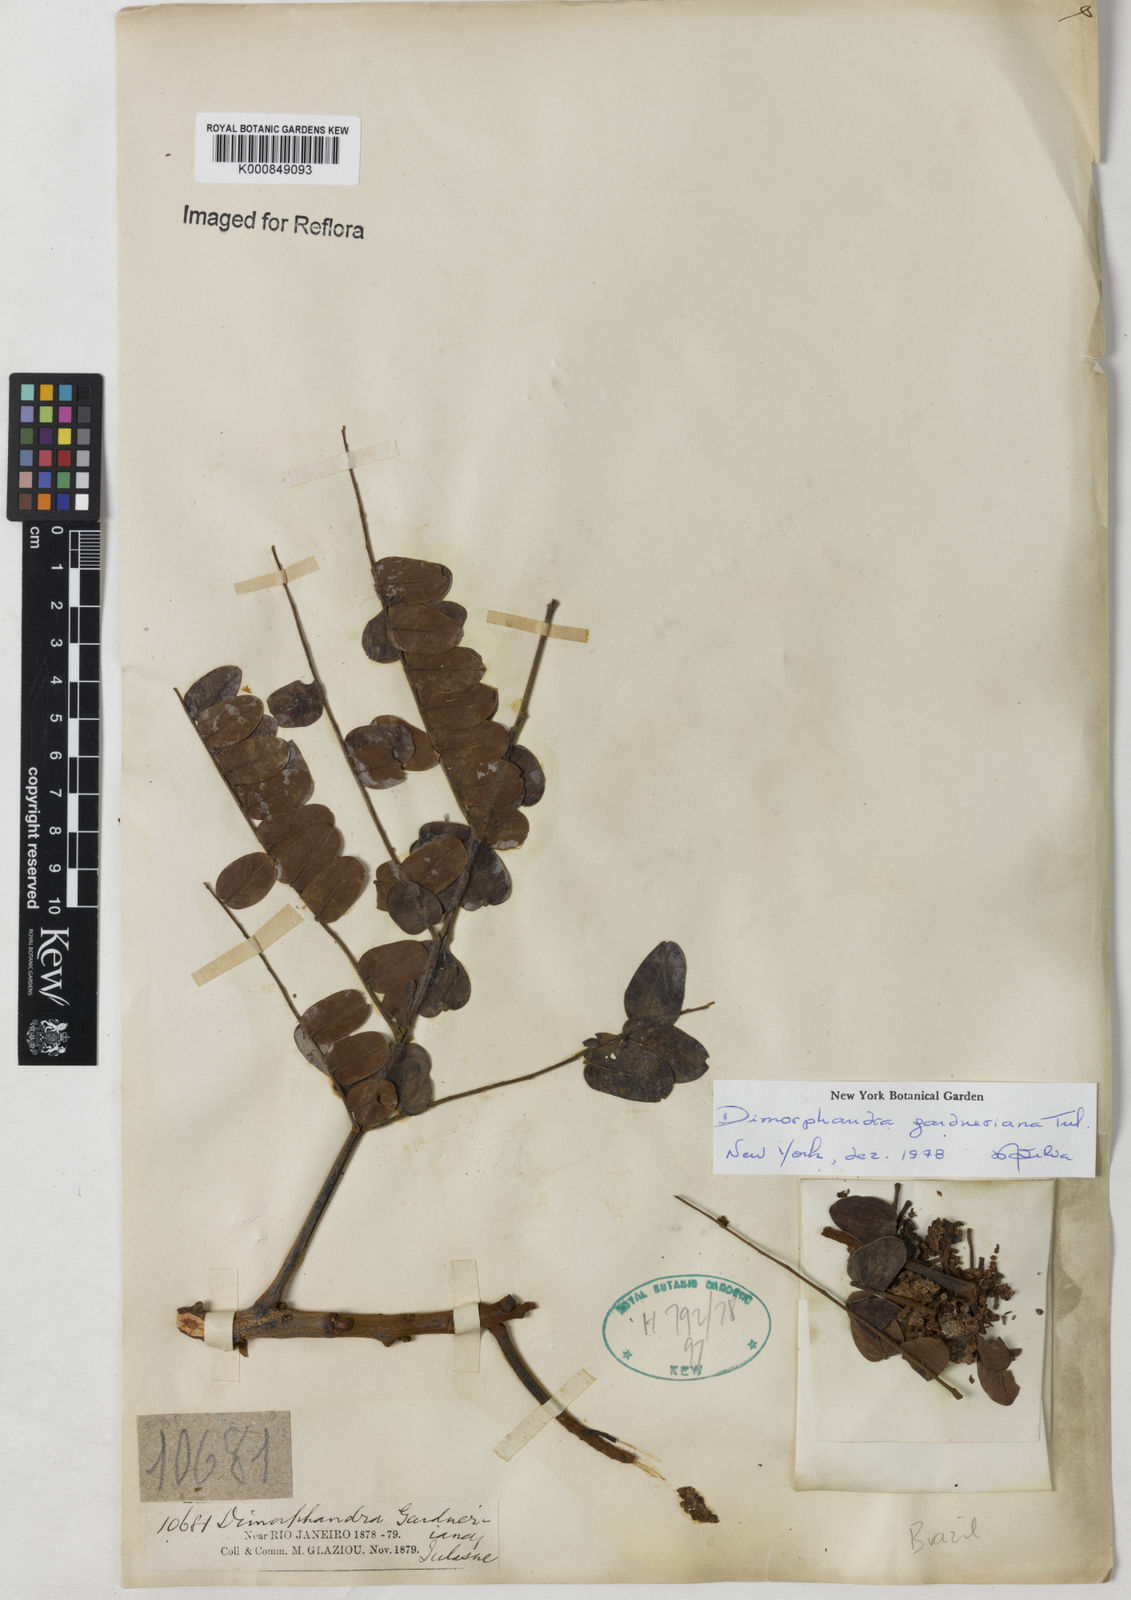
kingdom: Plantae
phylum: Tracheophyta
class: Magnoliopsida
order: Fabales
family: Fabaceae
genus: Dimorphandra
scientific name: Dimorphandra gardneriana
